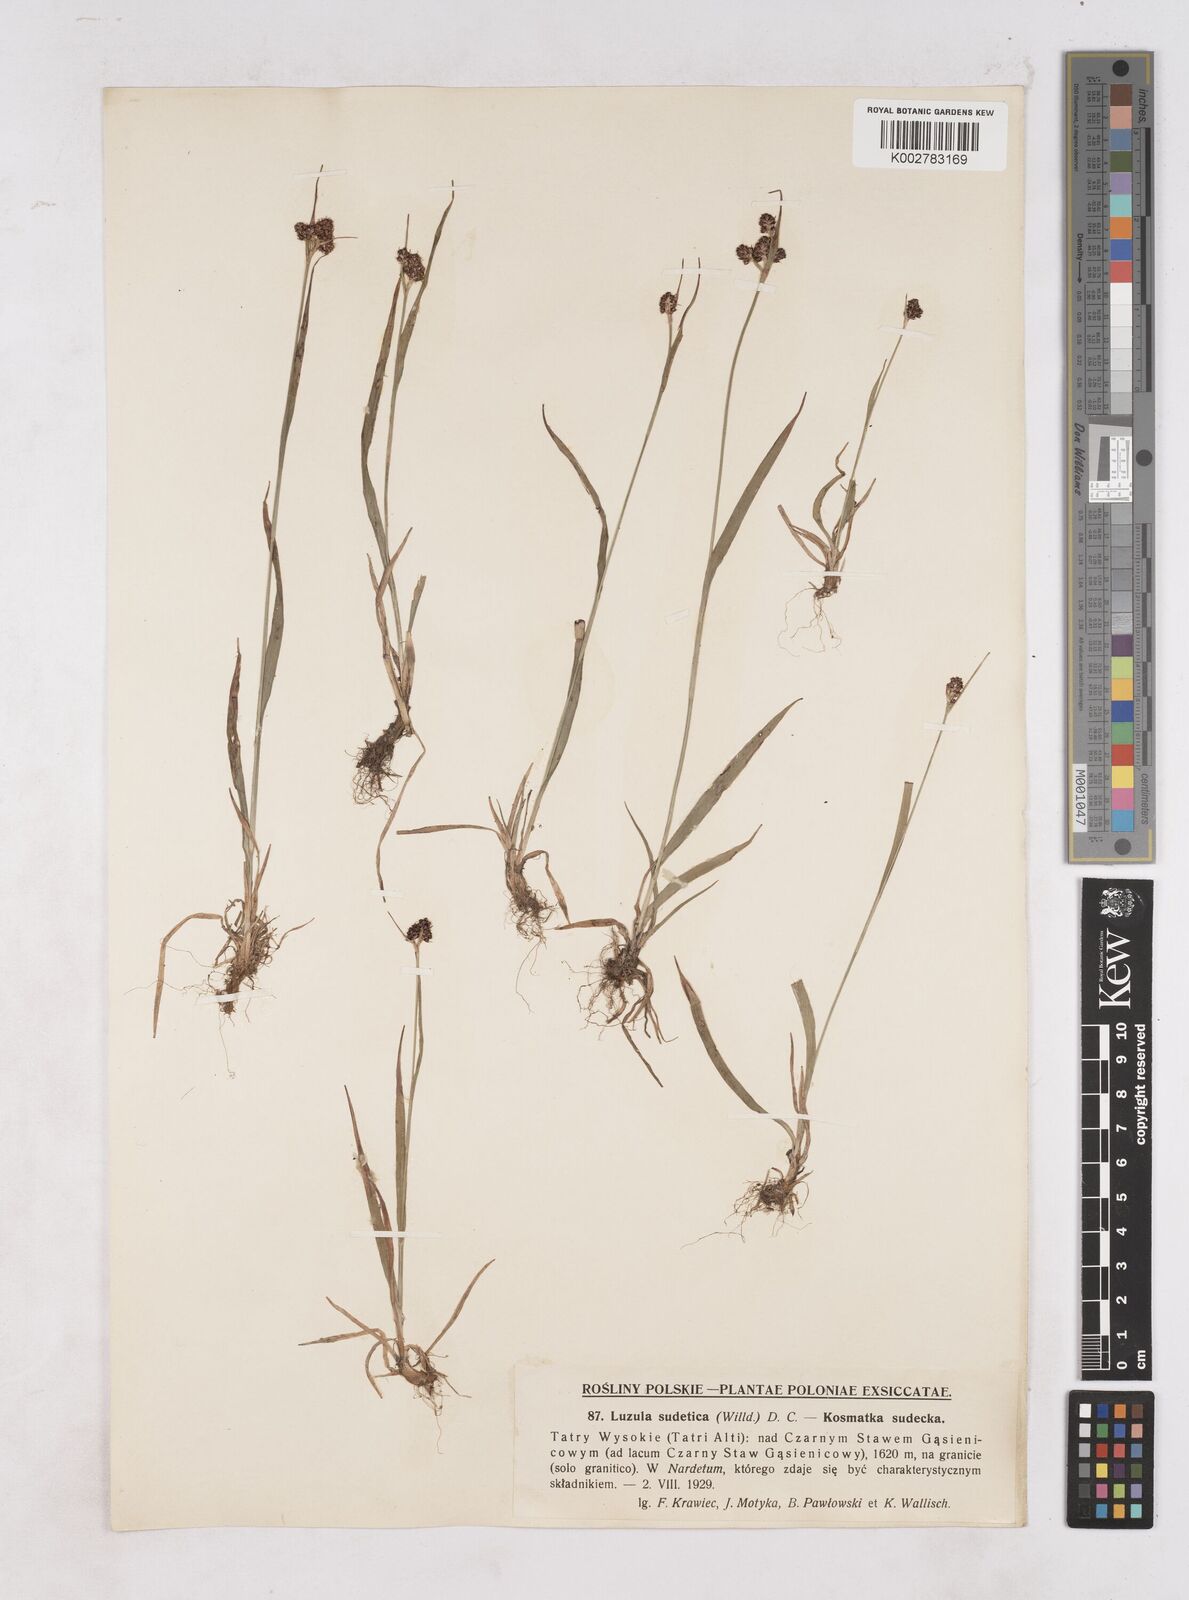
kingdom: Plantae
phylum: Tracheophyta
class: Liliopsida
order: Poales
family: Juncaceae
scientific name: Juncaceae
